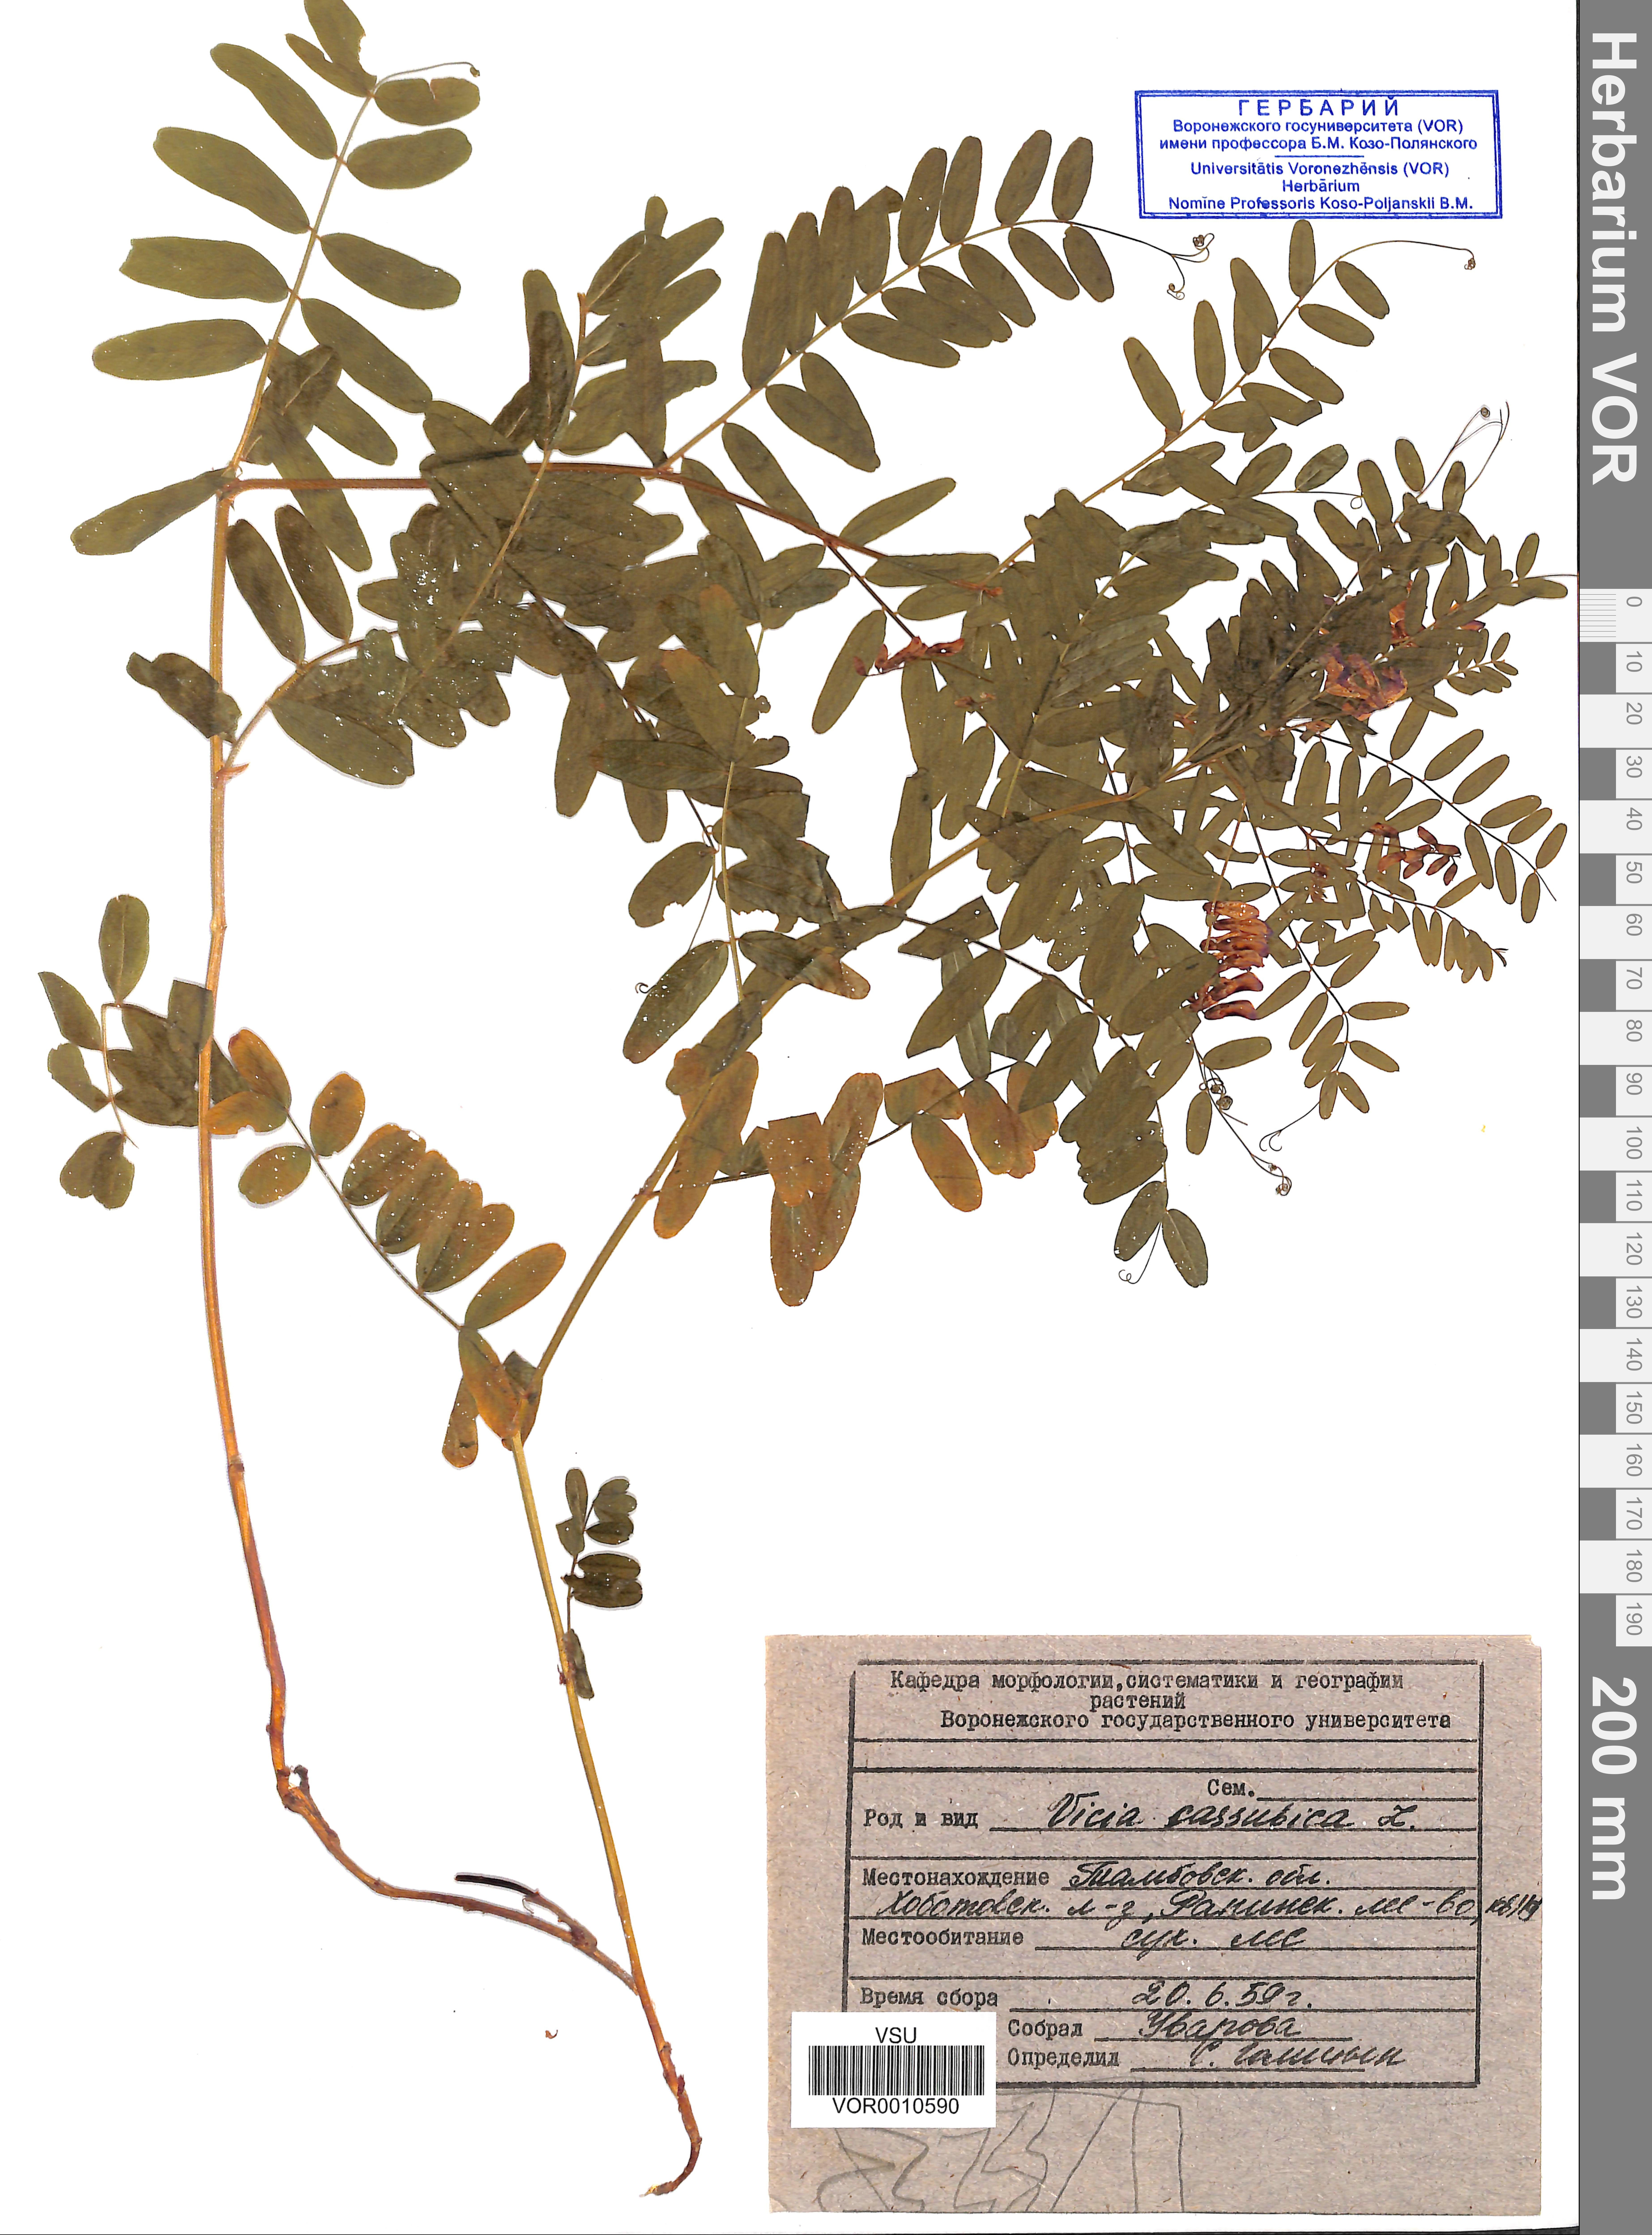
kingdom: Plantae
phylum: Tracheophyta
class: Magnoliopsida
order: Fabales
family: Fabaceae
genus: Vicia
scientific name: Vicia cassubica
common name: Danzig vetch
